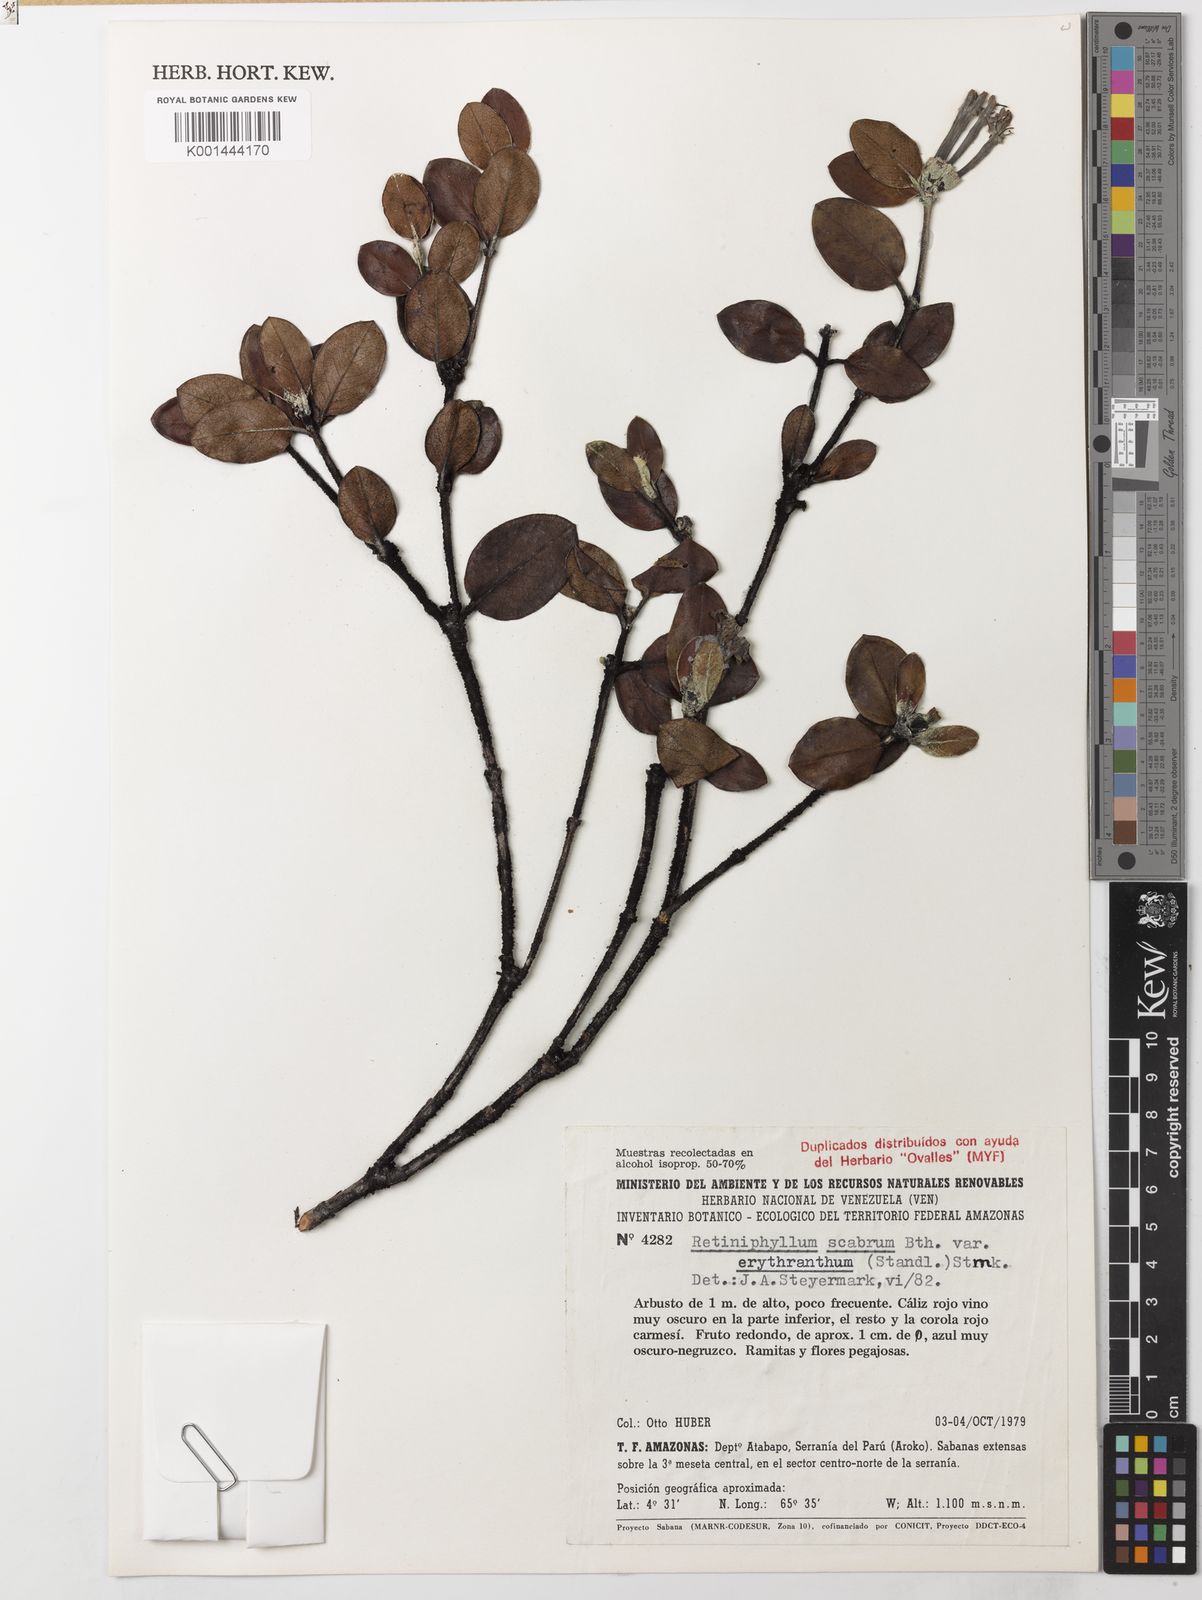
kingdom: Plantae
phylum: Tracheophyta
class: Magnoliopsida
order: Gentianales
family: Rubiaceae
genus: Retiniphyllum
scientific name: Retiniphyllum scabrum
